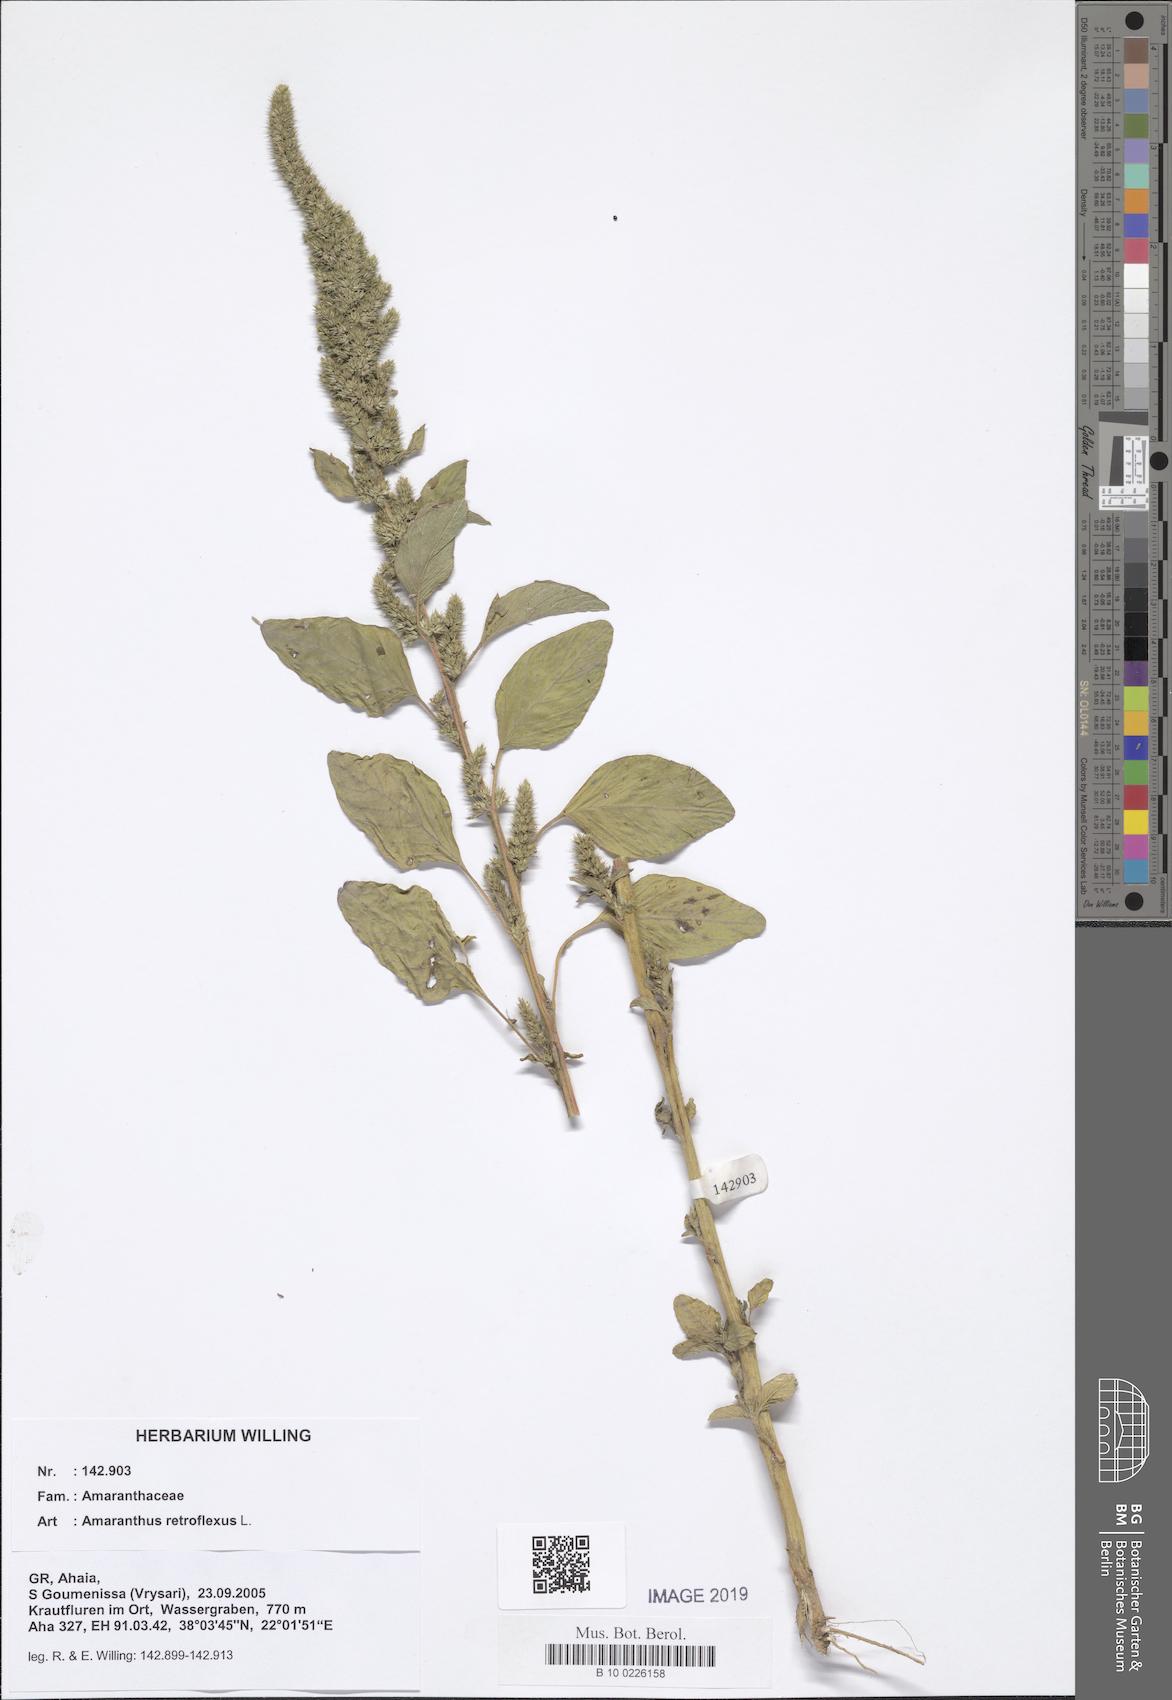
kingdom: Plantae
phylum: Tracheophyta
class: Magnoliopsida
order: Caryophyllales
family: Amaranthaceae
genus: Amaranthus
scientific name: Amaranthus retroflexus
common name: Redroot amaranth
